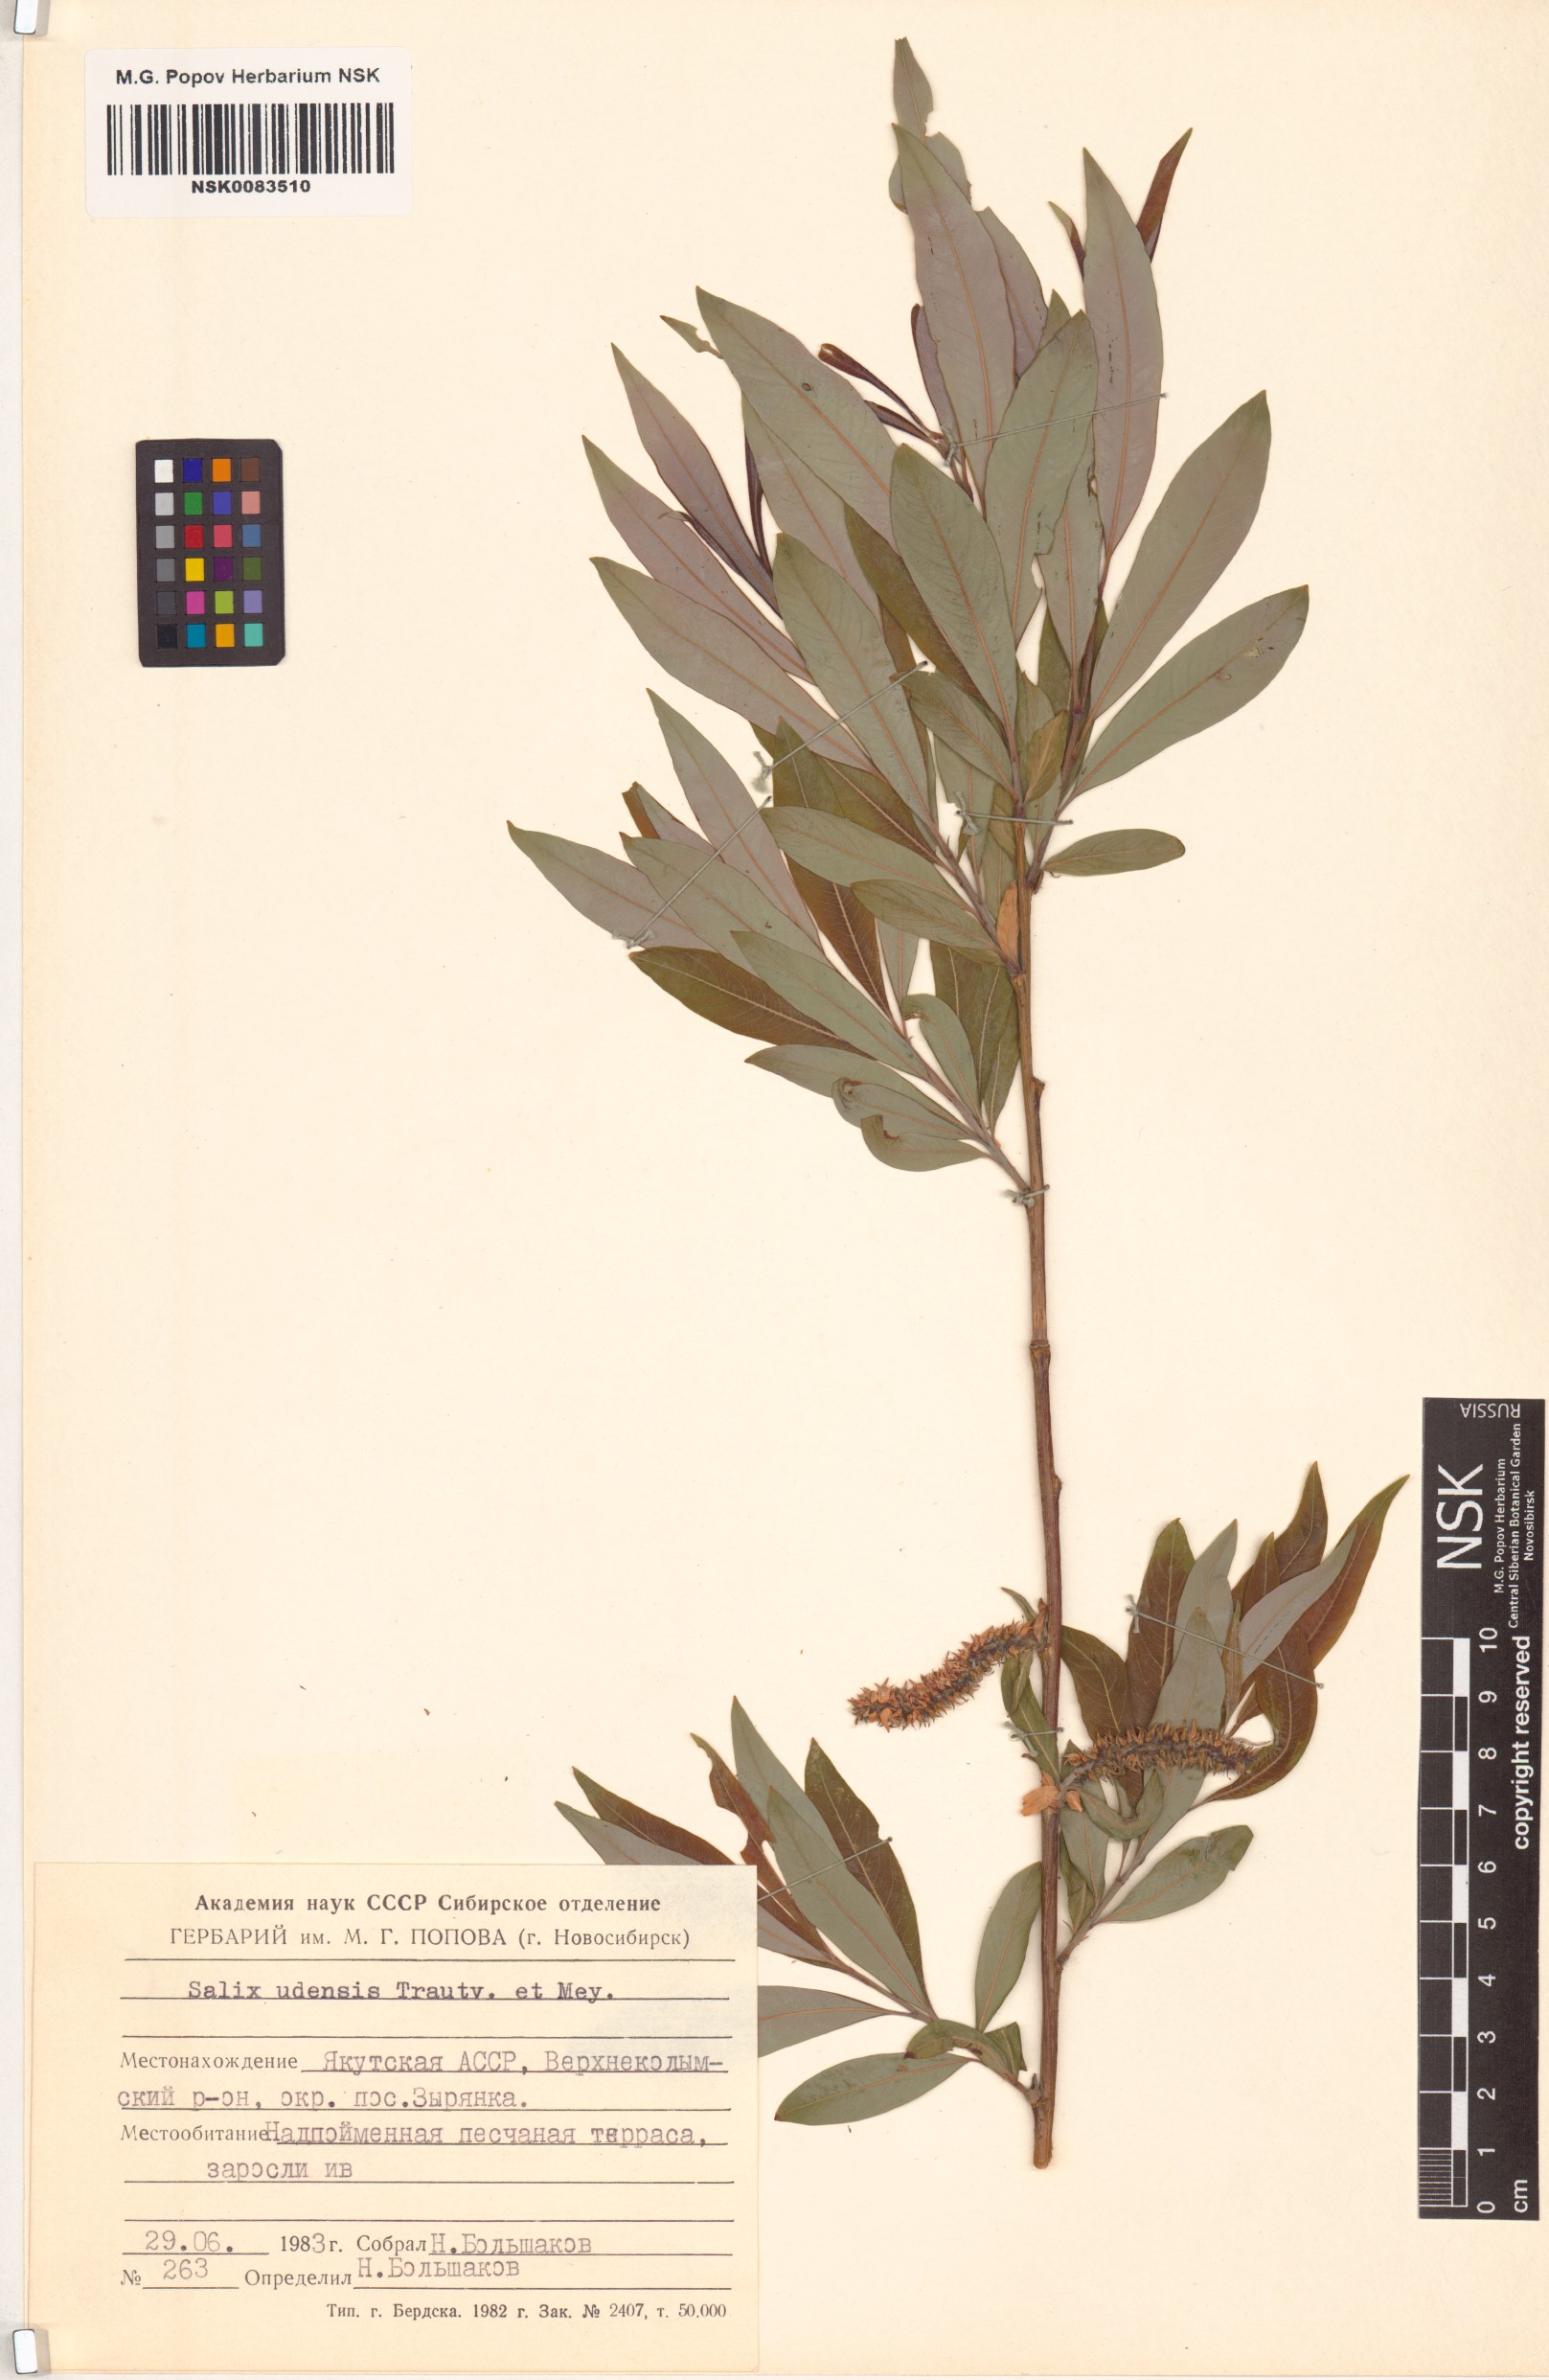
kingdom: Plantae
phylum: Tracheophyta
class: Magnoliopsida
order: Malpighiales
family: Salicaceae
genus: Salix
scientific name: Salix udensis
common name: Sachalin willow
